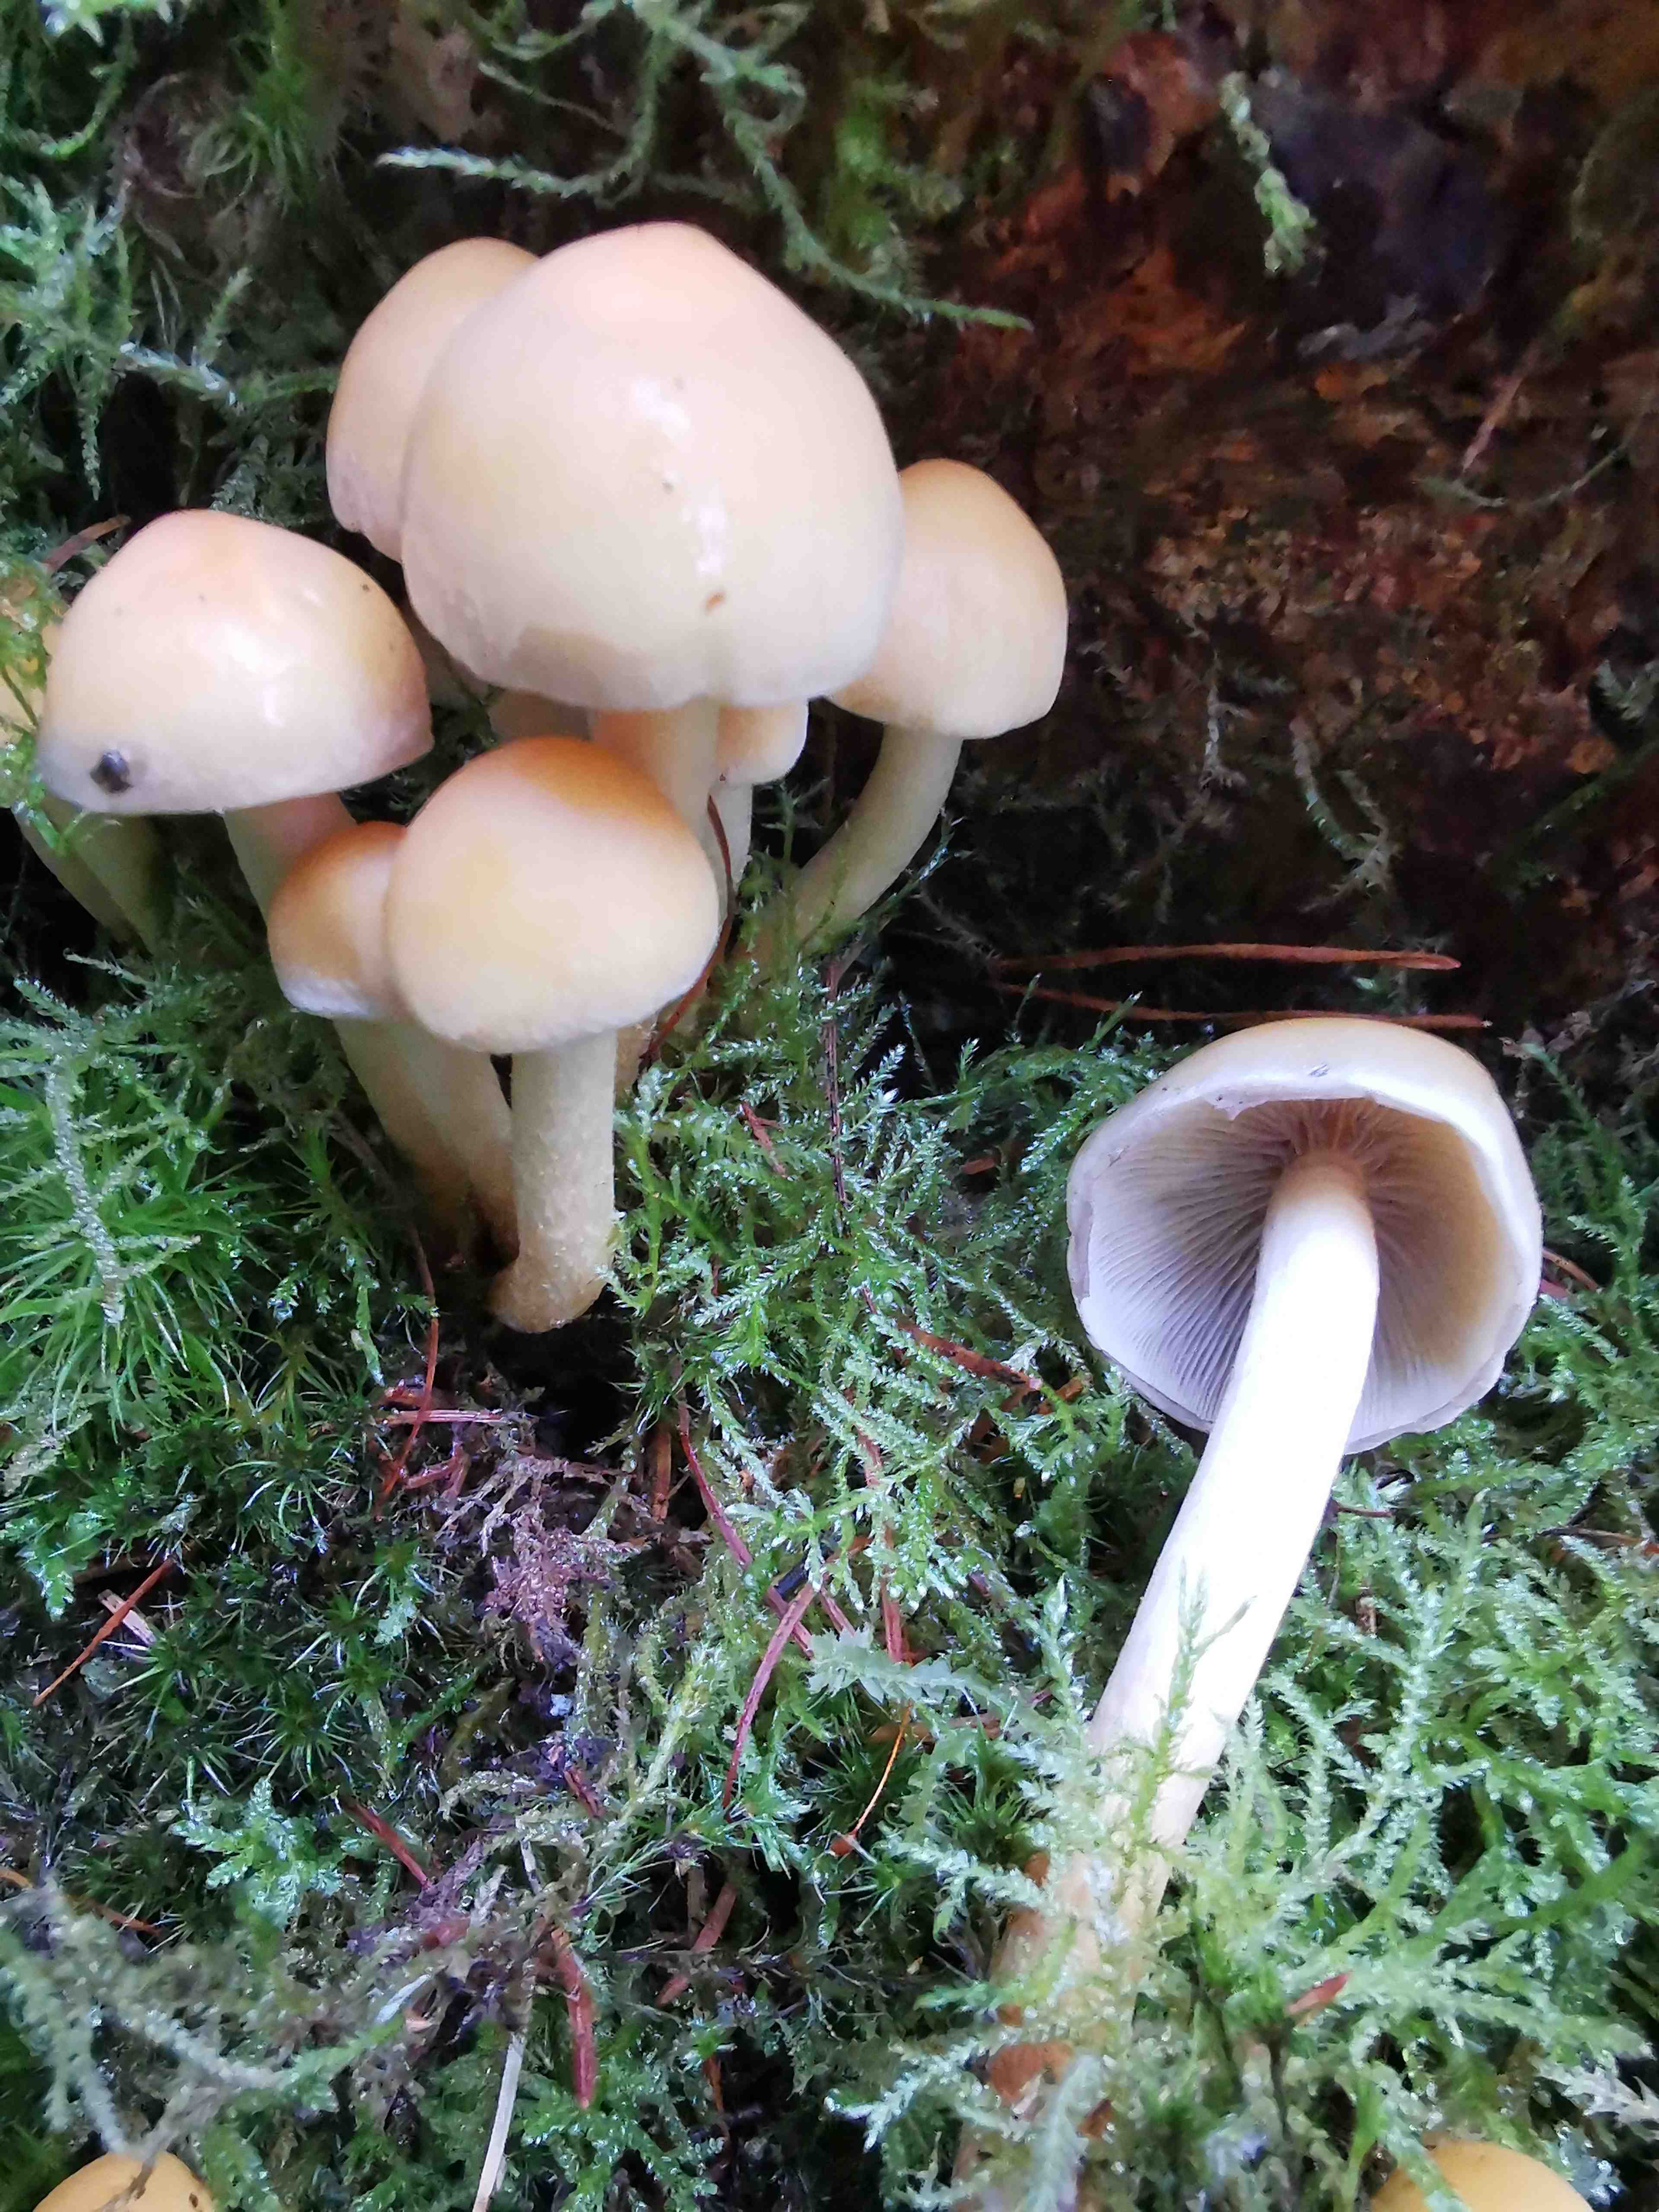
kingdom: Fungi
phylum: Basidiomycota
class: Agaricomycetes
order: Agaricales
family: Strophariaceae
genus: Hypholoma
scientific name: Hypholoma capnoides
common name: gran-svovlhat
